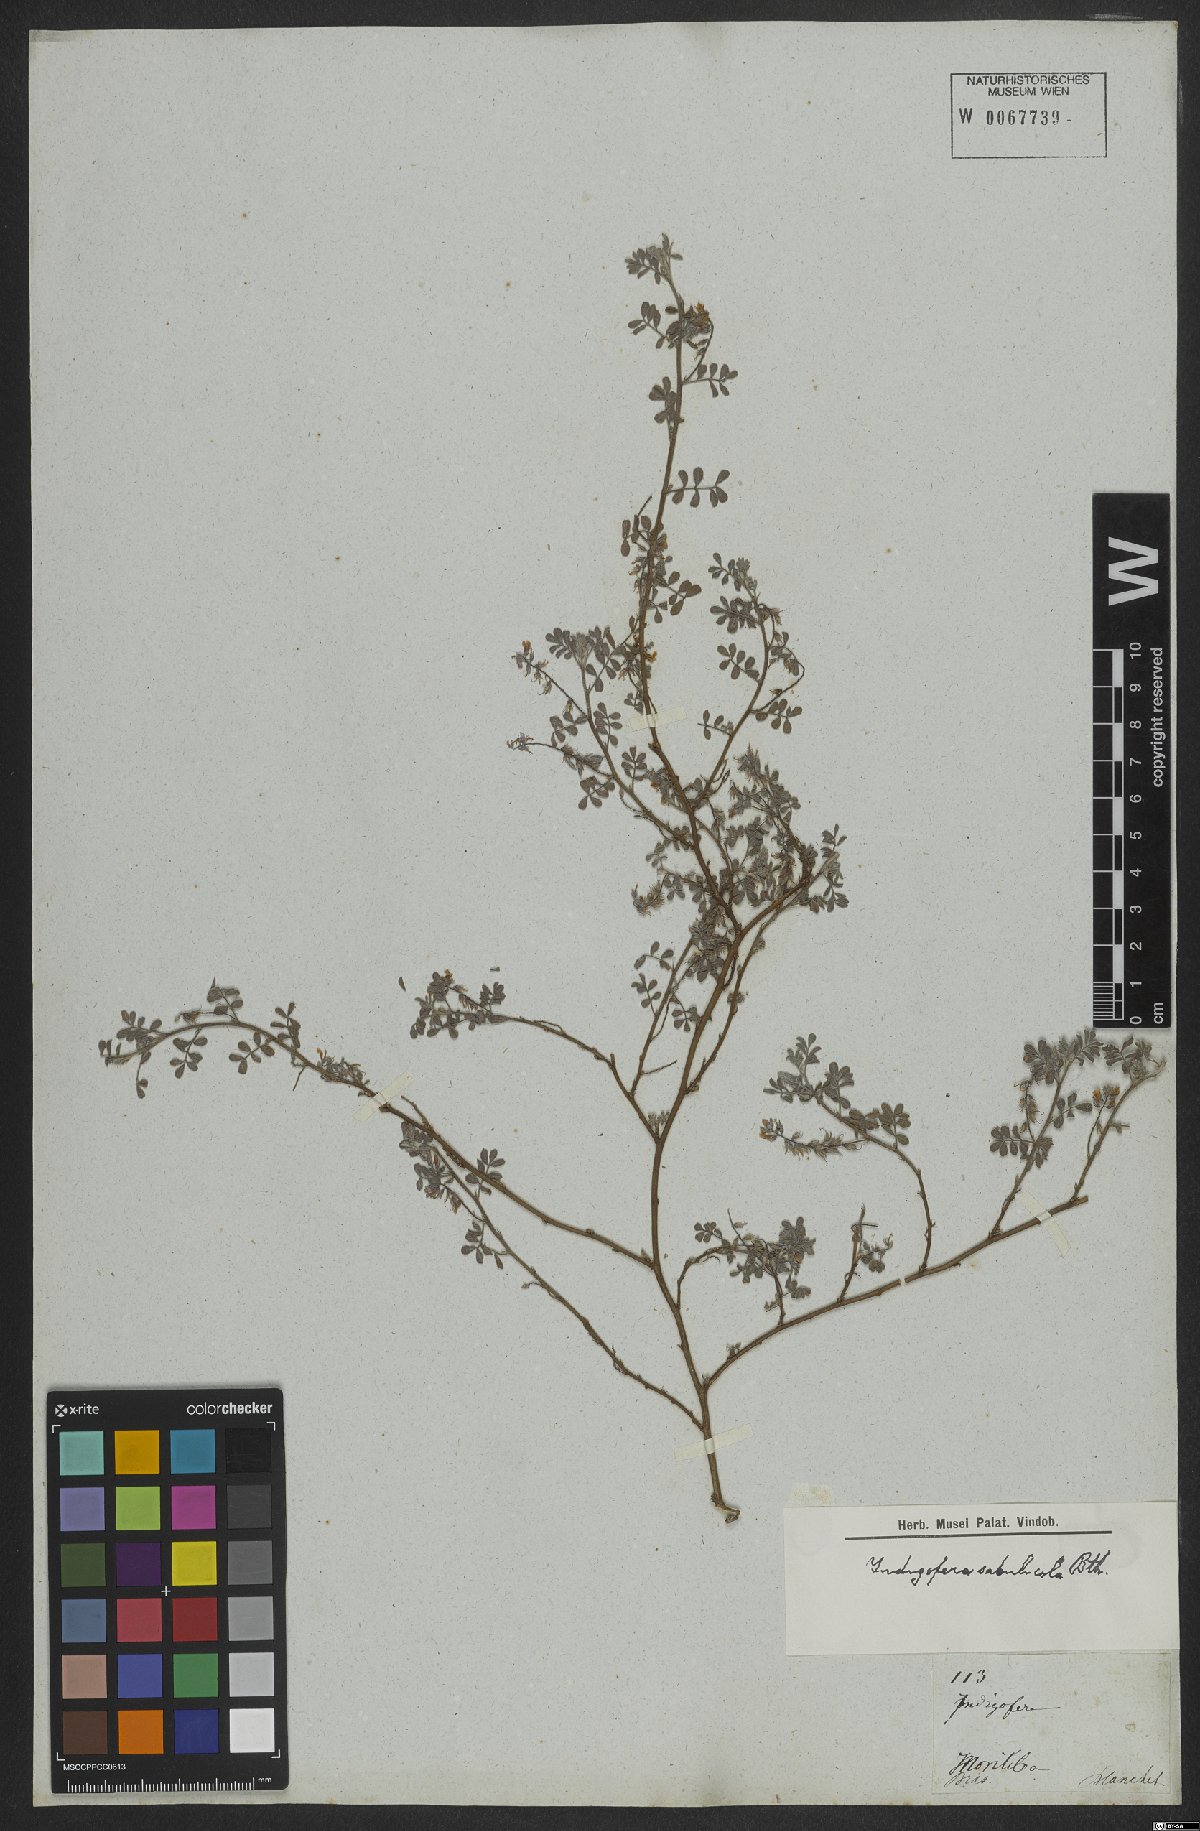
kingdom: Plantae
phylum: Tracheophyta
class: Magnoliopsida
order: Fabales
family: Fabaceae
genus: Indigofera
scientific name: Indigofera microcarpa
